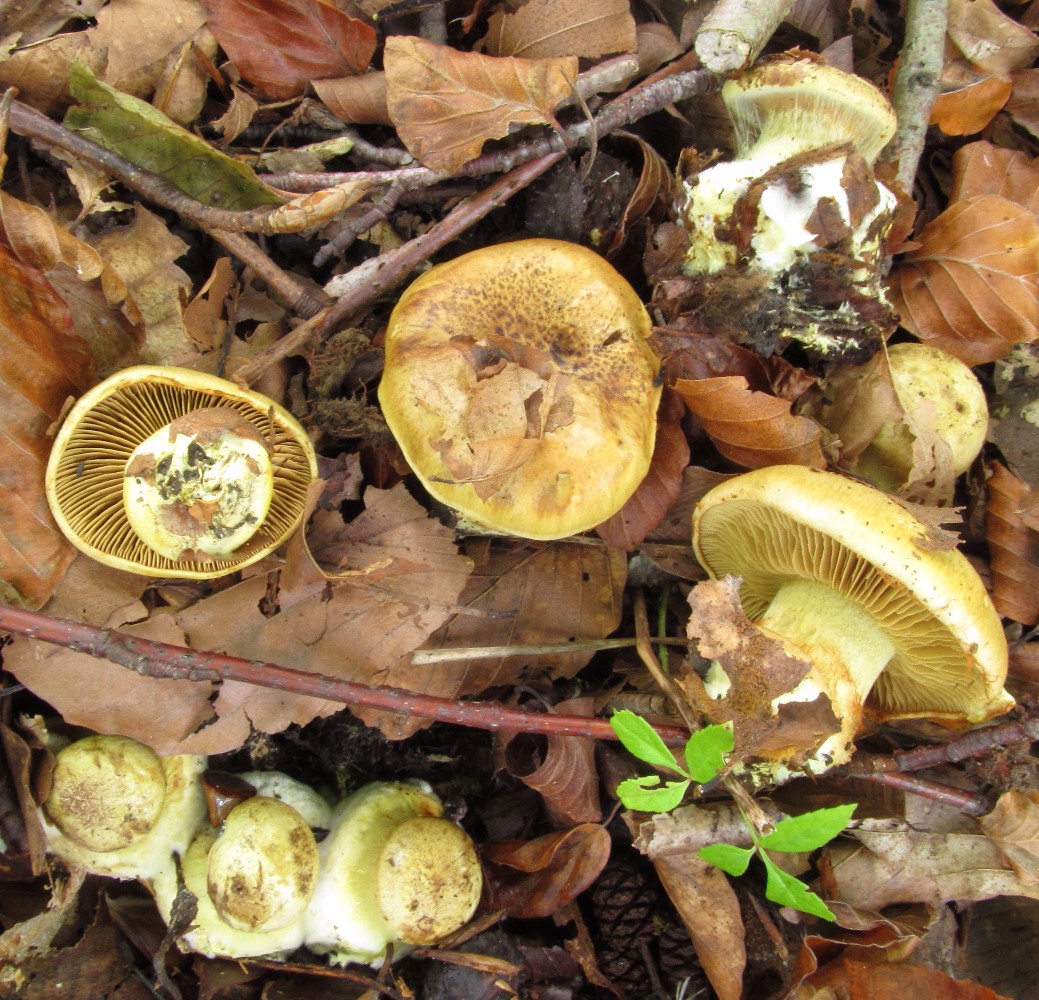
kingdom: Fungi
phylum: Basidiomycota
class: Agaricomycetes
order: Agaricales
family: Cortinariaceae
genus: Calonarius
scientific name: Calonarius citrinus
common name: citrongul slørhat
